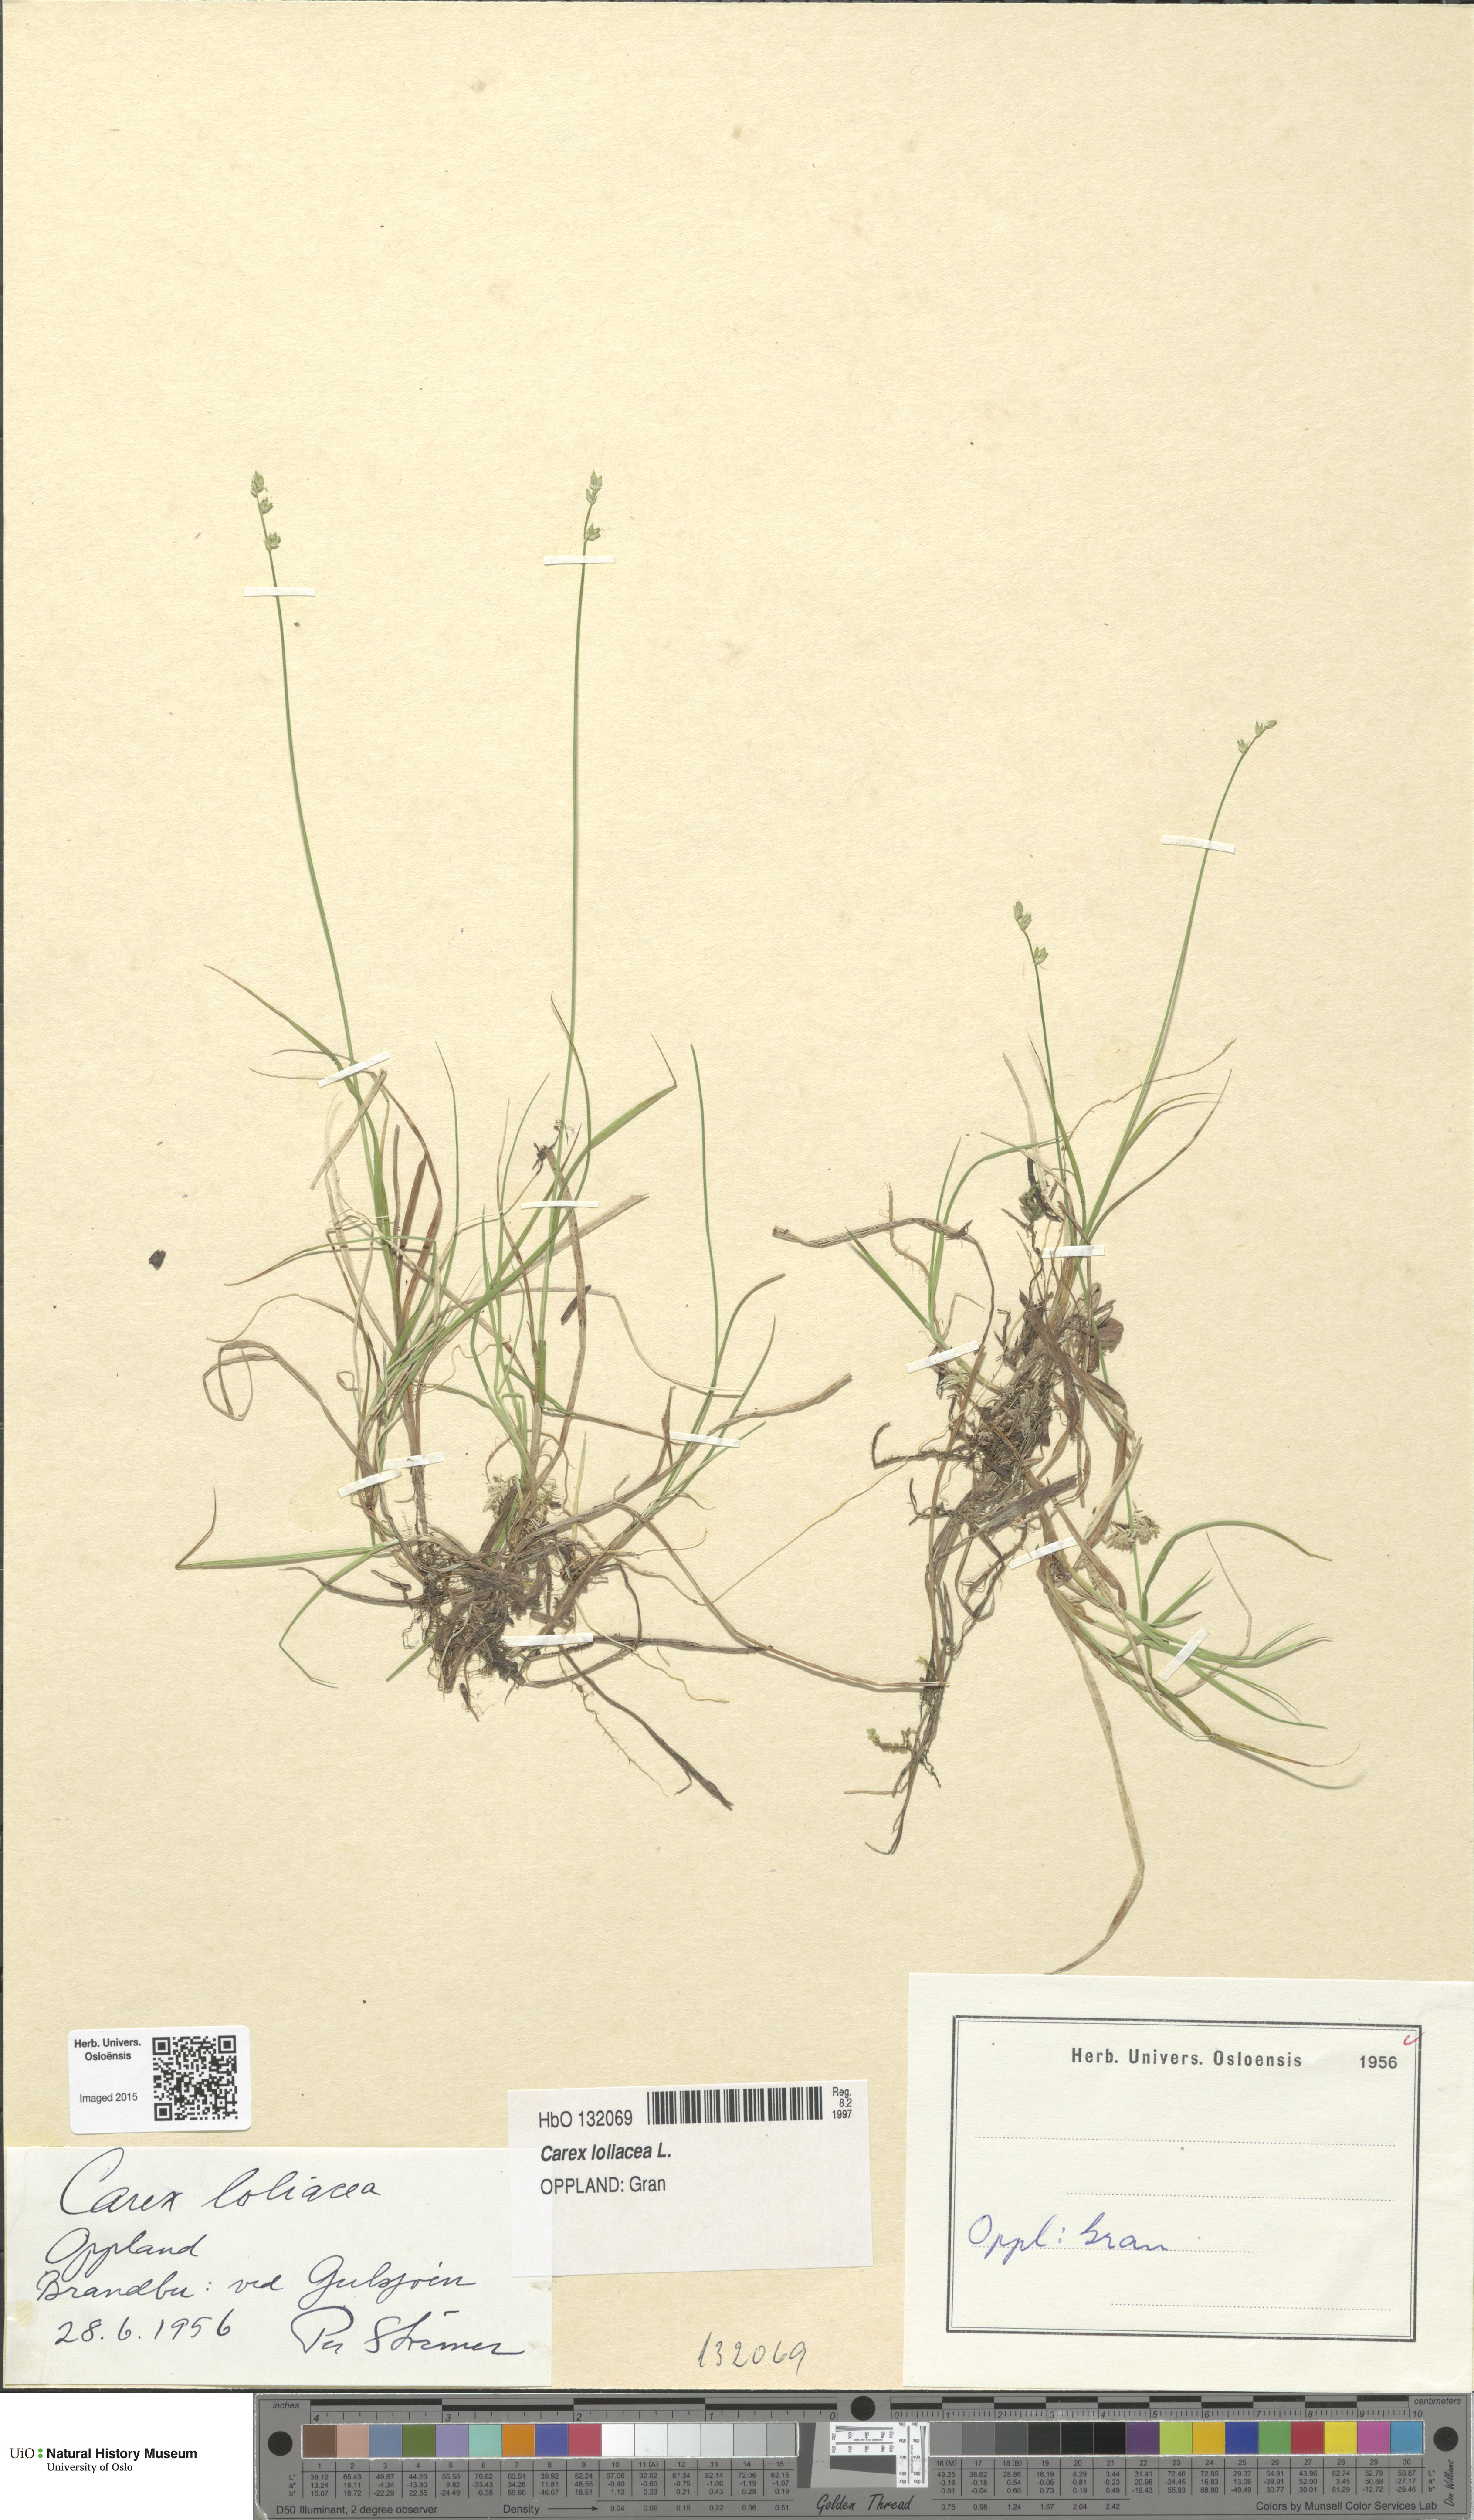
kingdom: Plantae
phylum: Tracheophyta
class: Liliopsida
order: Poales
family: Cyperaceae
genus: Carex
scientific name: Carex loliacea
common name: Ryegrass sedge
